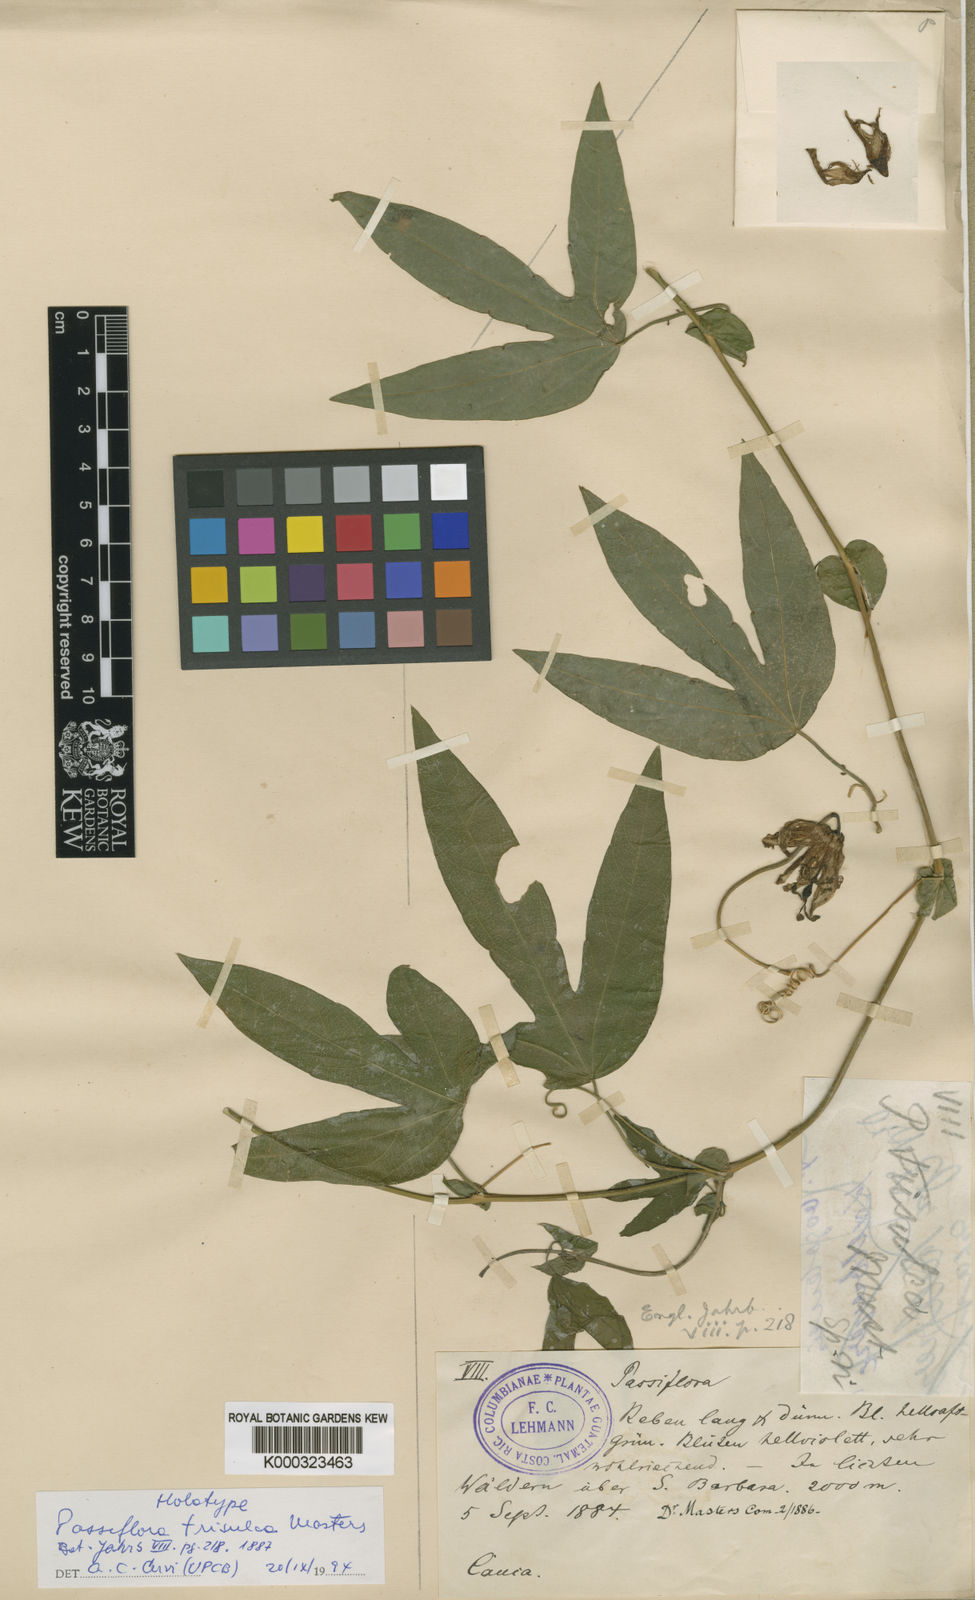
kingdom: Plantae
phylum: Tracheophyta
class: Magnoliopsida
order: Malpighiales
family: Passifloraceae
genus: Passiflora
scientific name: Passiflora trisulca
